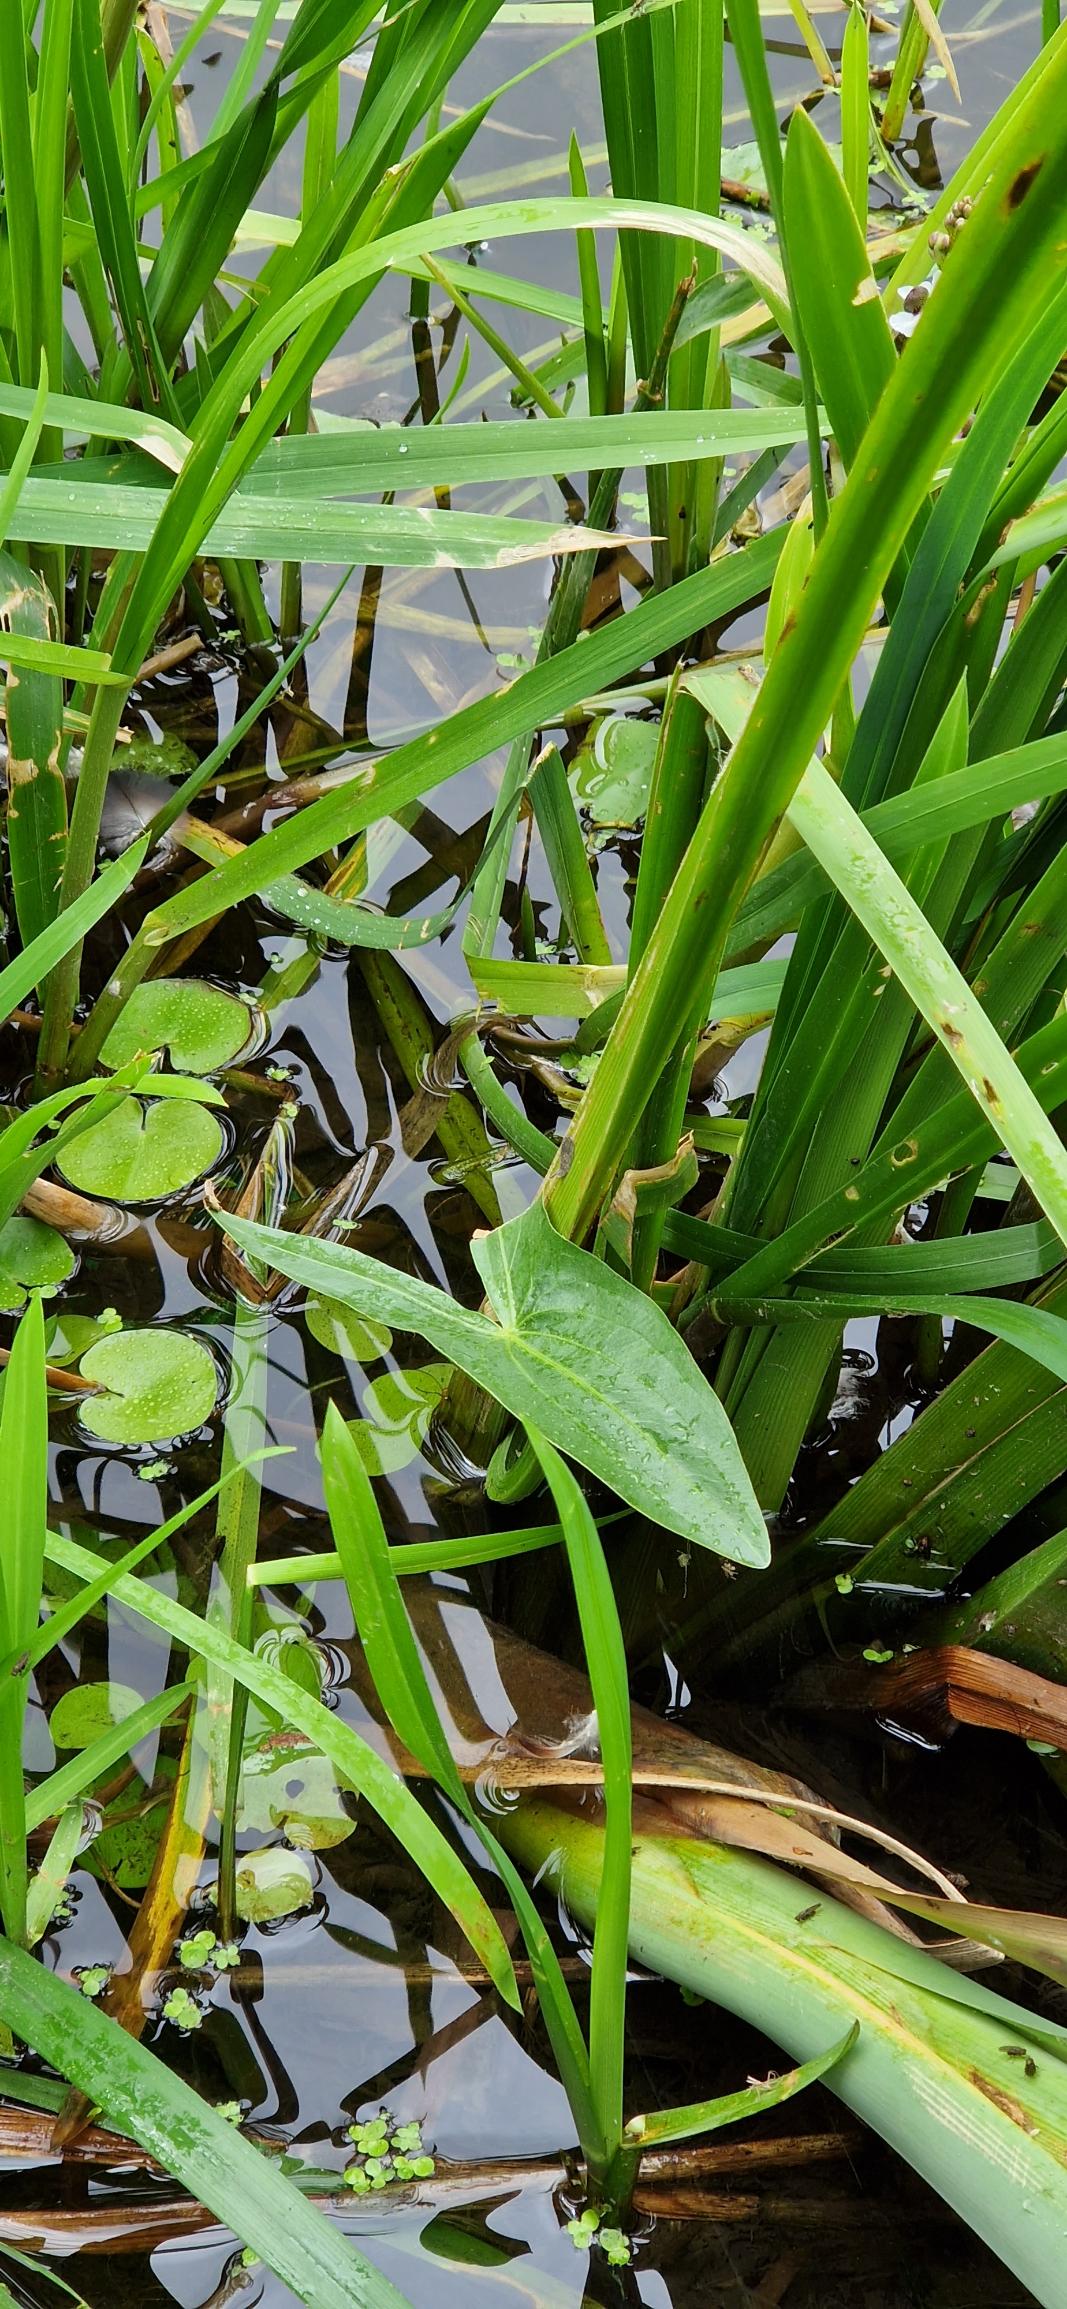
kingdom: Plantae
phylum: Tracheophyta
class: Liliopsida
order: Alismatales
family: Alismataceae
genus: Sagittaria
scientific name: Sagittaria sagittifolia
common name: Pilblad
